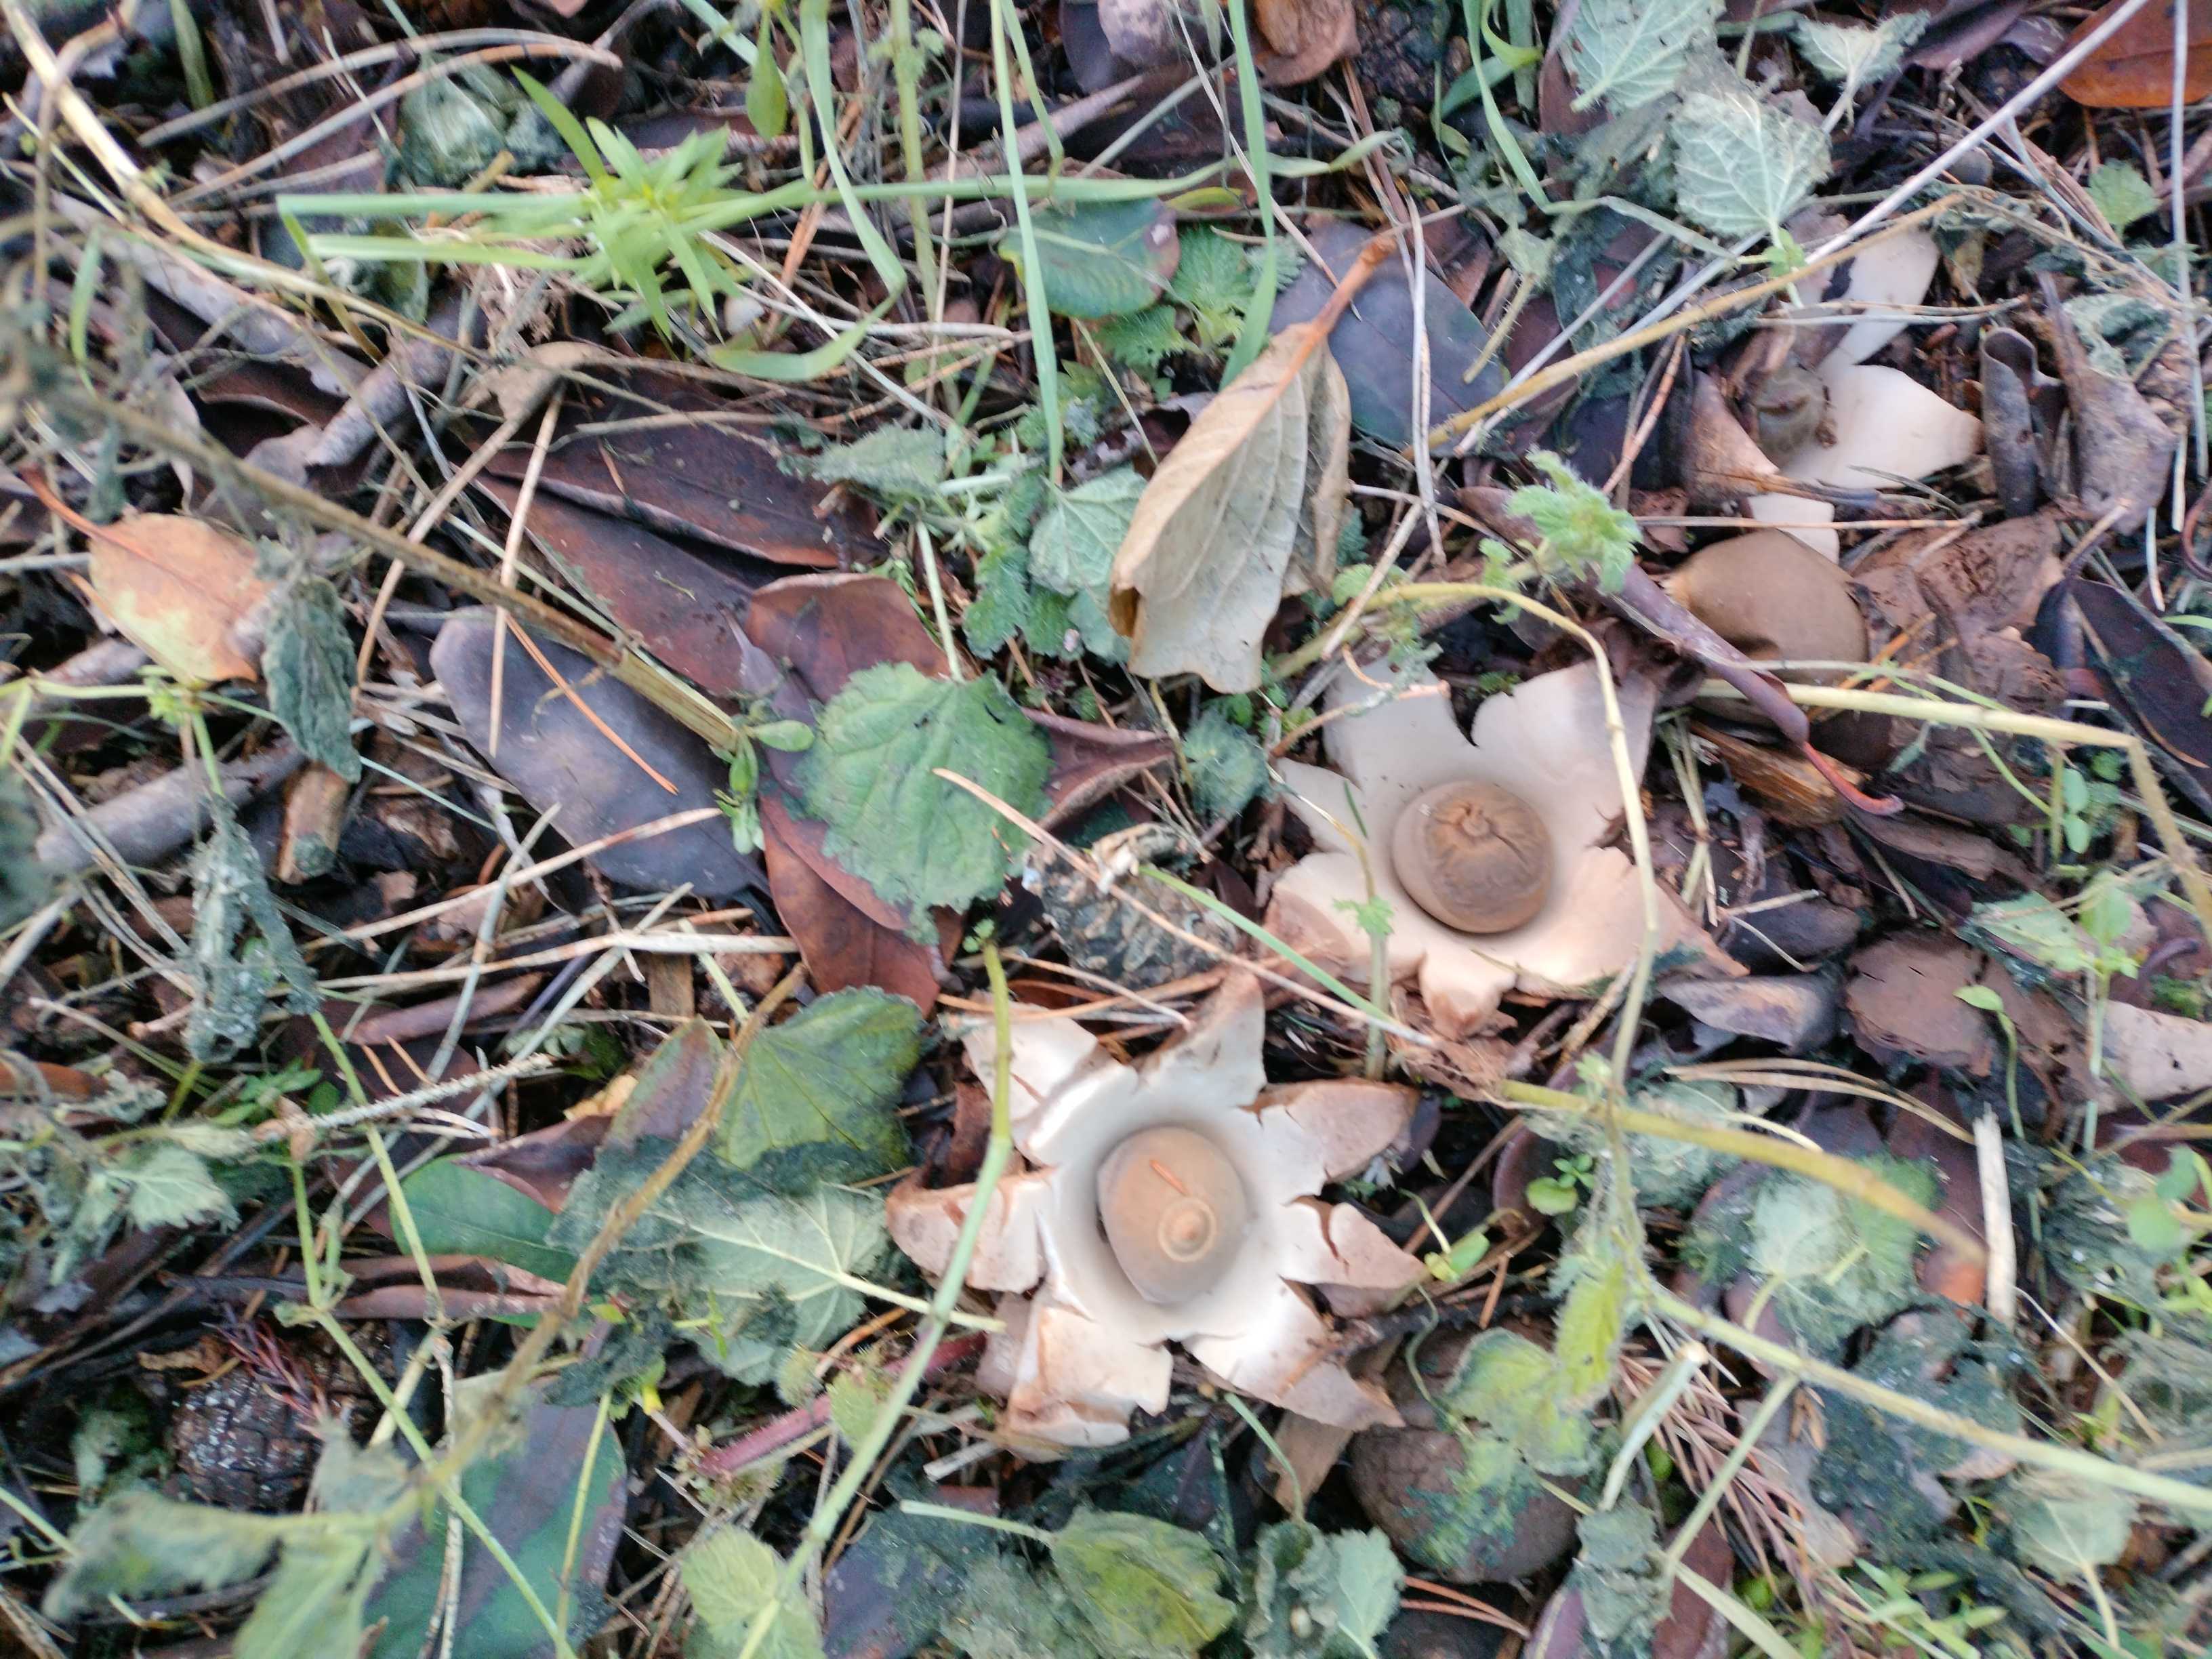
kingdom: Fungi
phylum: Basidiomycota
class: Agaricomycetes
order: Geastrales
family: Geastraceae
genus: Geastrum
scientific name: Geastrum michelianum
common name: kødet stjernebold
